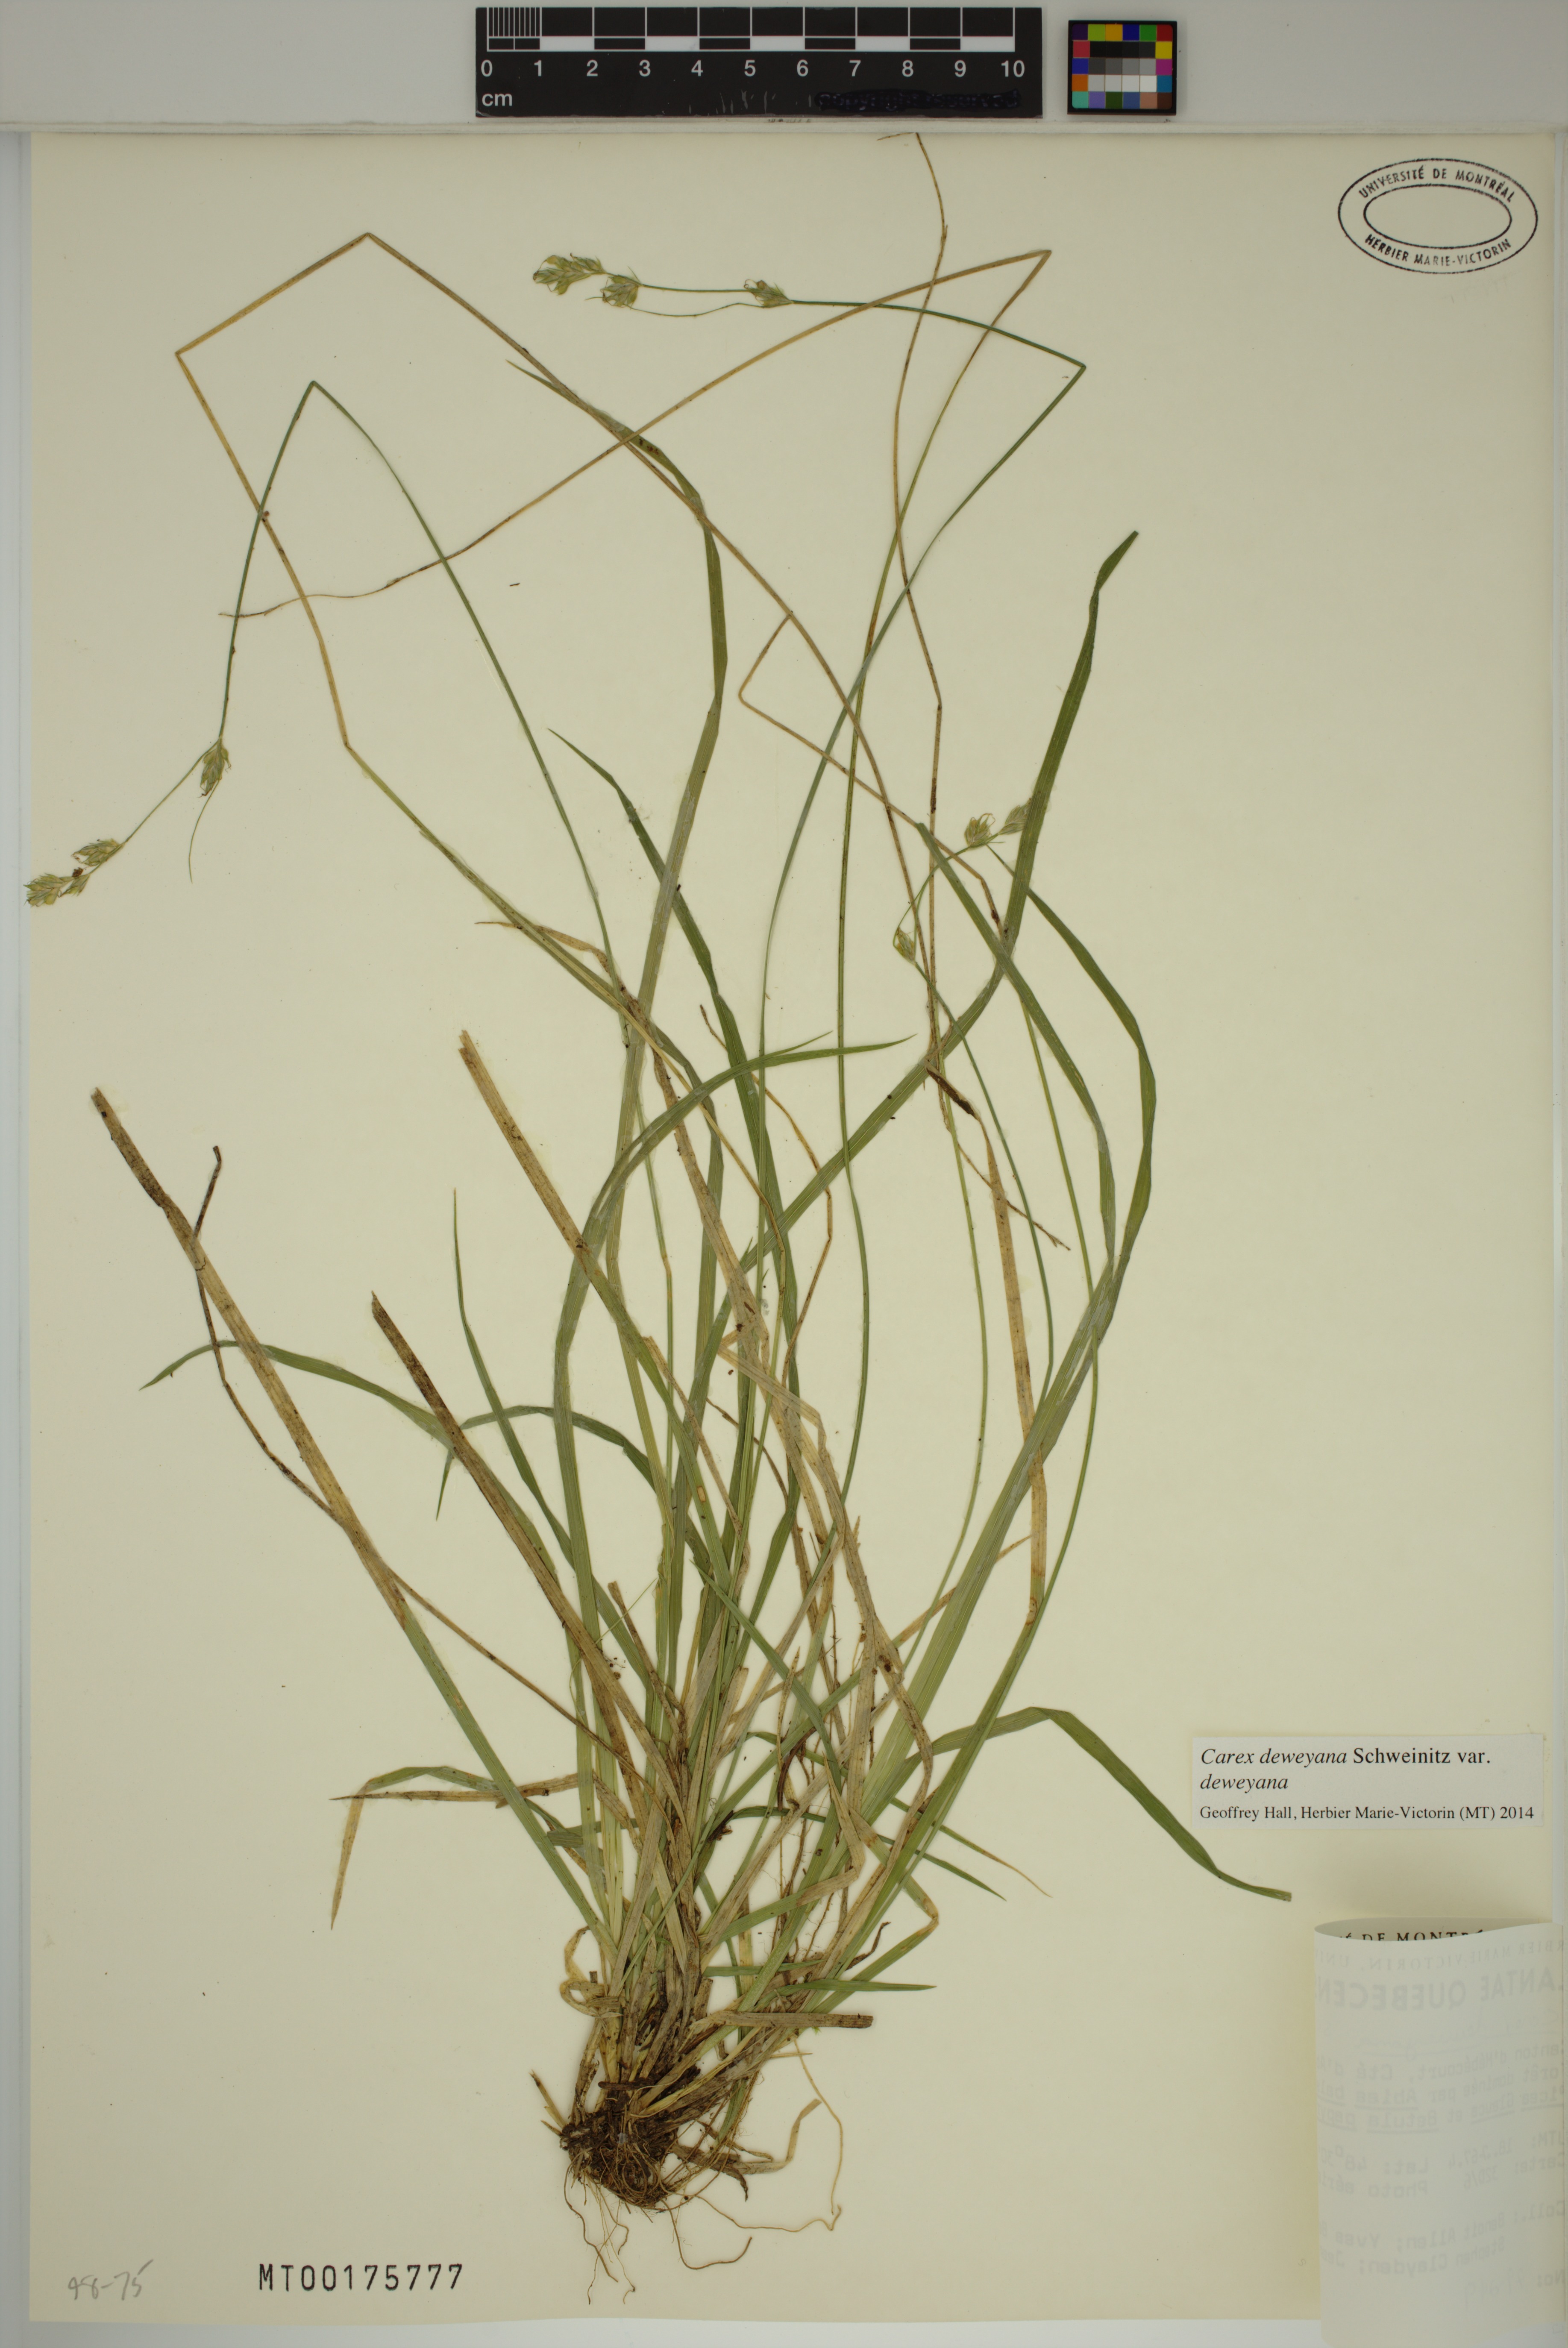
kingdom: Plantae
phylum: Tracheophyta
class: Liliopsida
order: Poales
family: Cyperaceae
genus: Carex
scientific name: Carex deweyana
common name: Dewey's sedge
